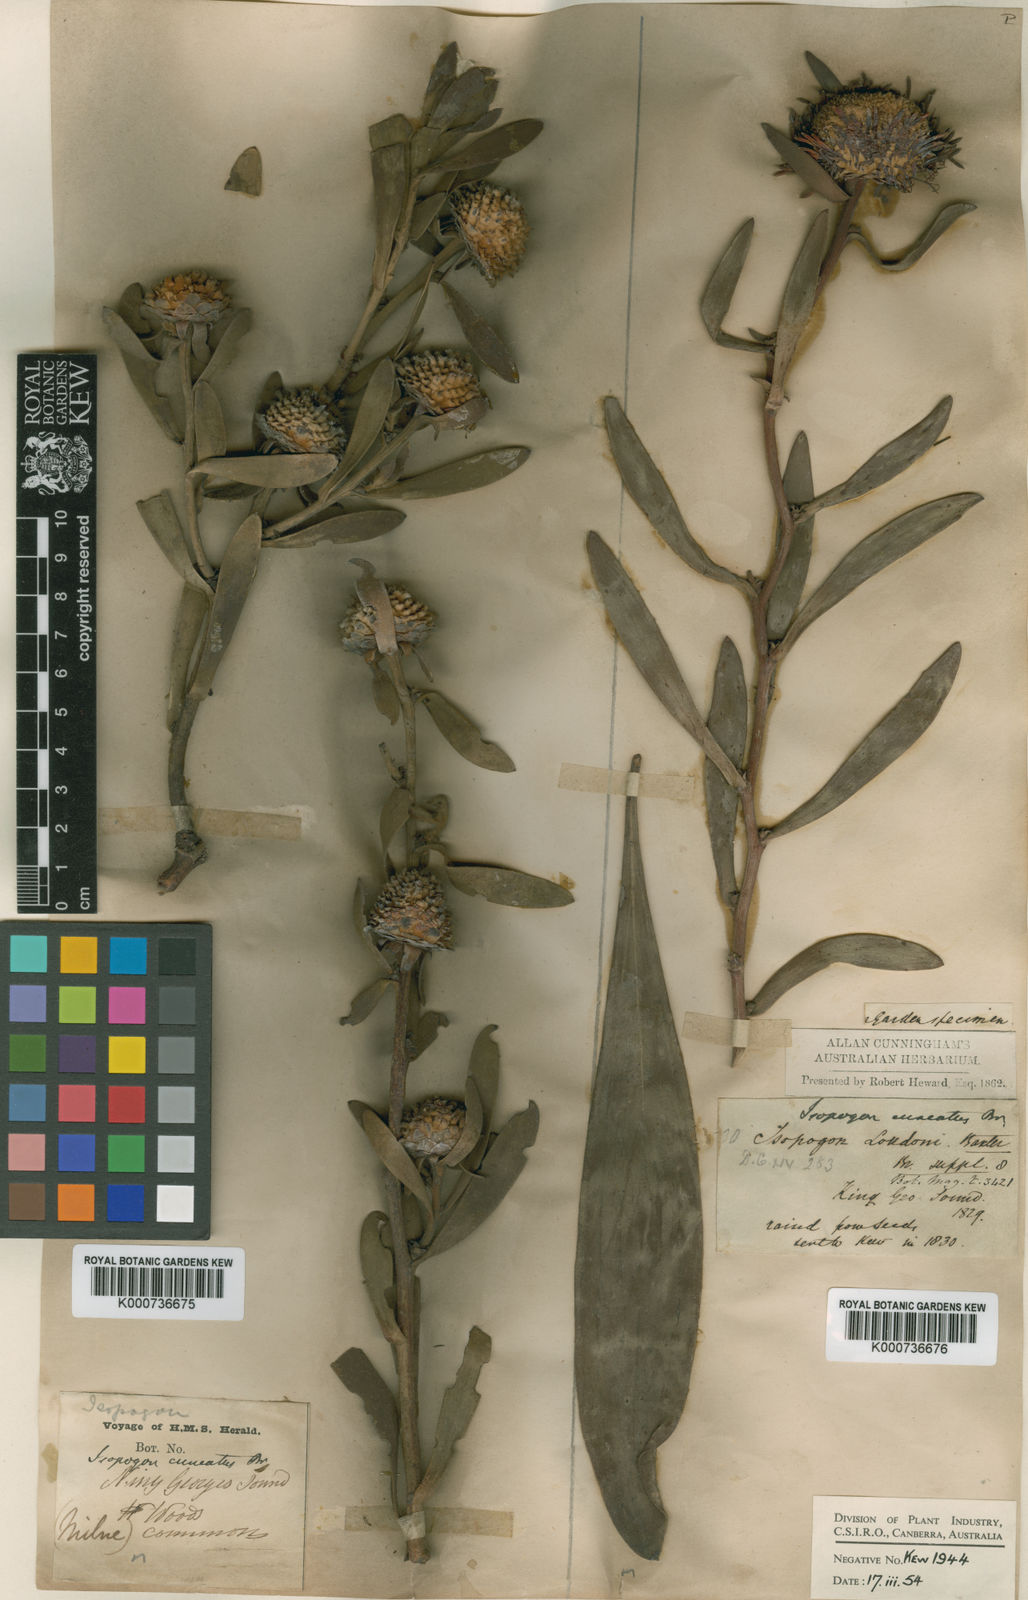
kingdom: Plantae
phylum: Tracheophyta
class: Magnoliopsida
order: Proteales
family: Proteaceae
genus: Isopogon
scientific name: Isopogon cuneatus
